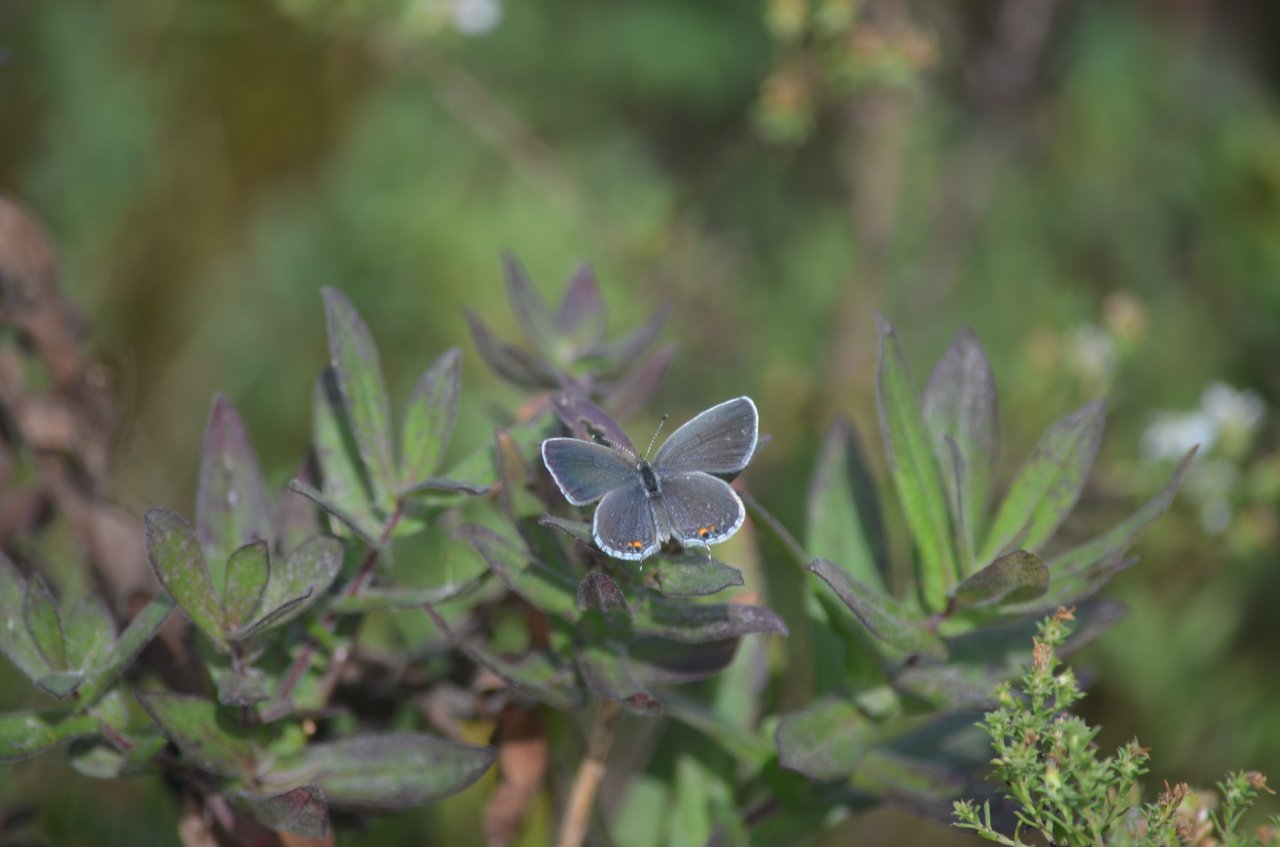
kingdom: Animalia
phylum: Arthropoda
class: Insecta
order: Lepidoptera
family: Lycaenidae
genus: Elkalyce
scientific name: Elkalyce comyntas
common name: Eastern Tailed-Blue
